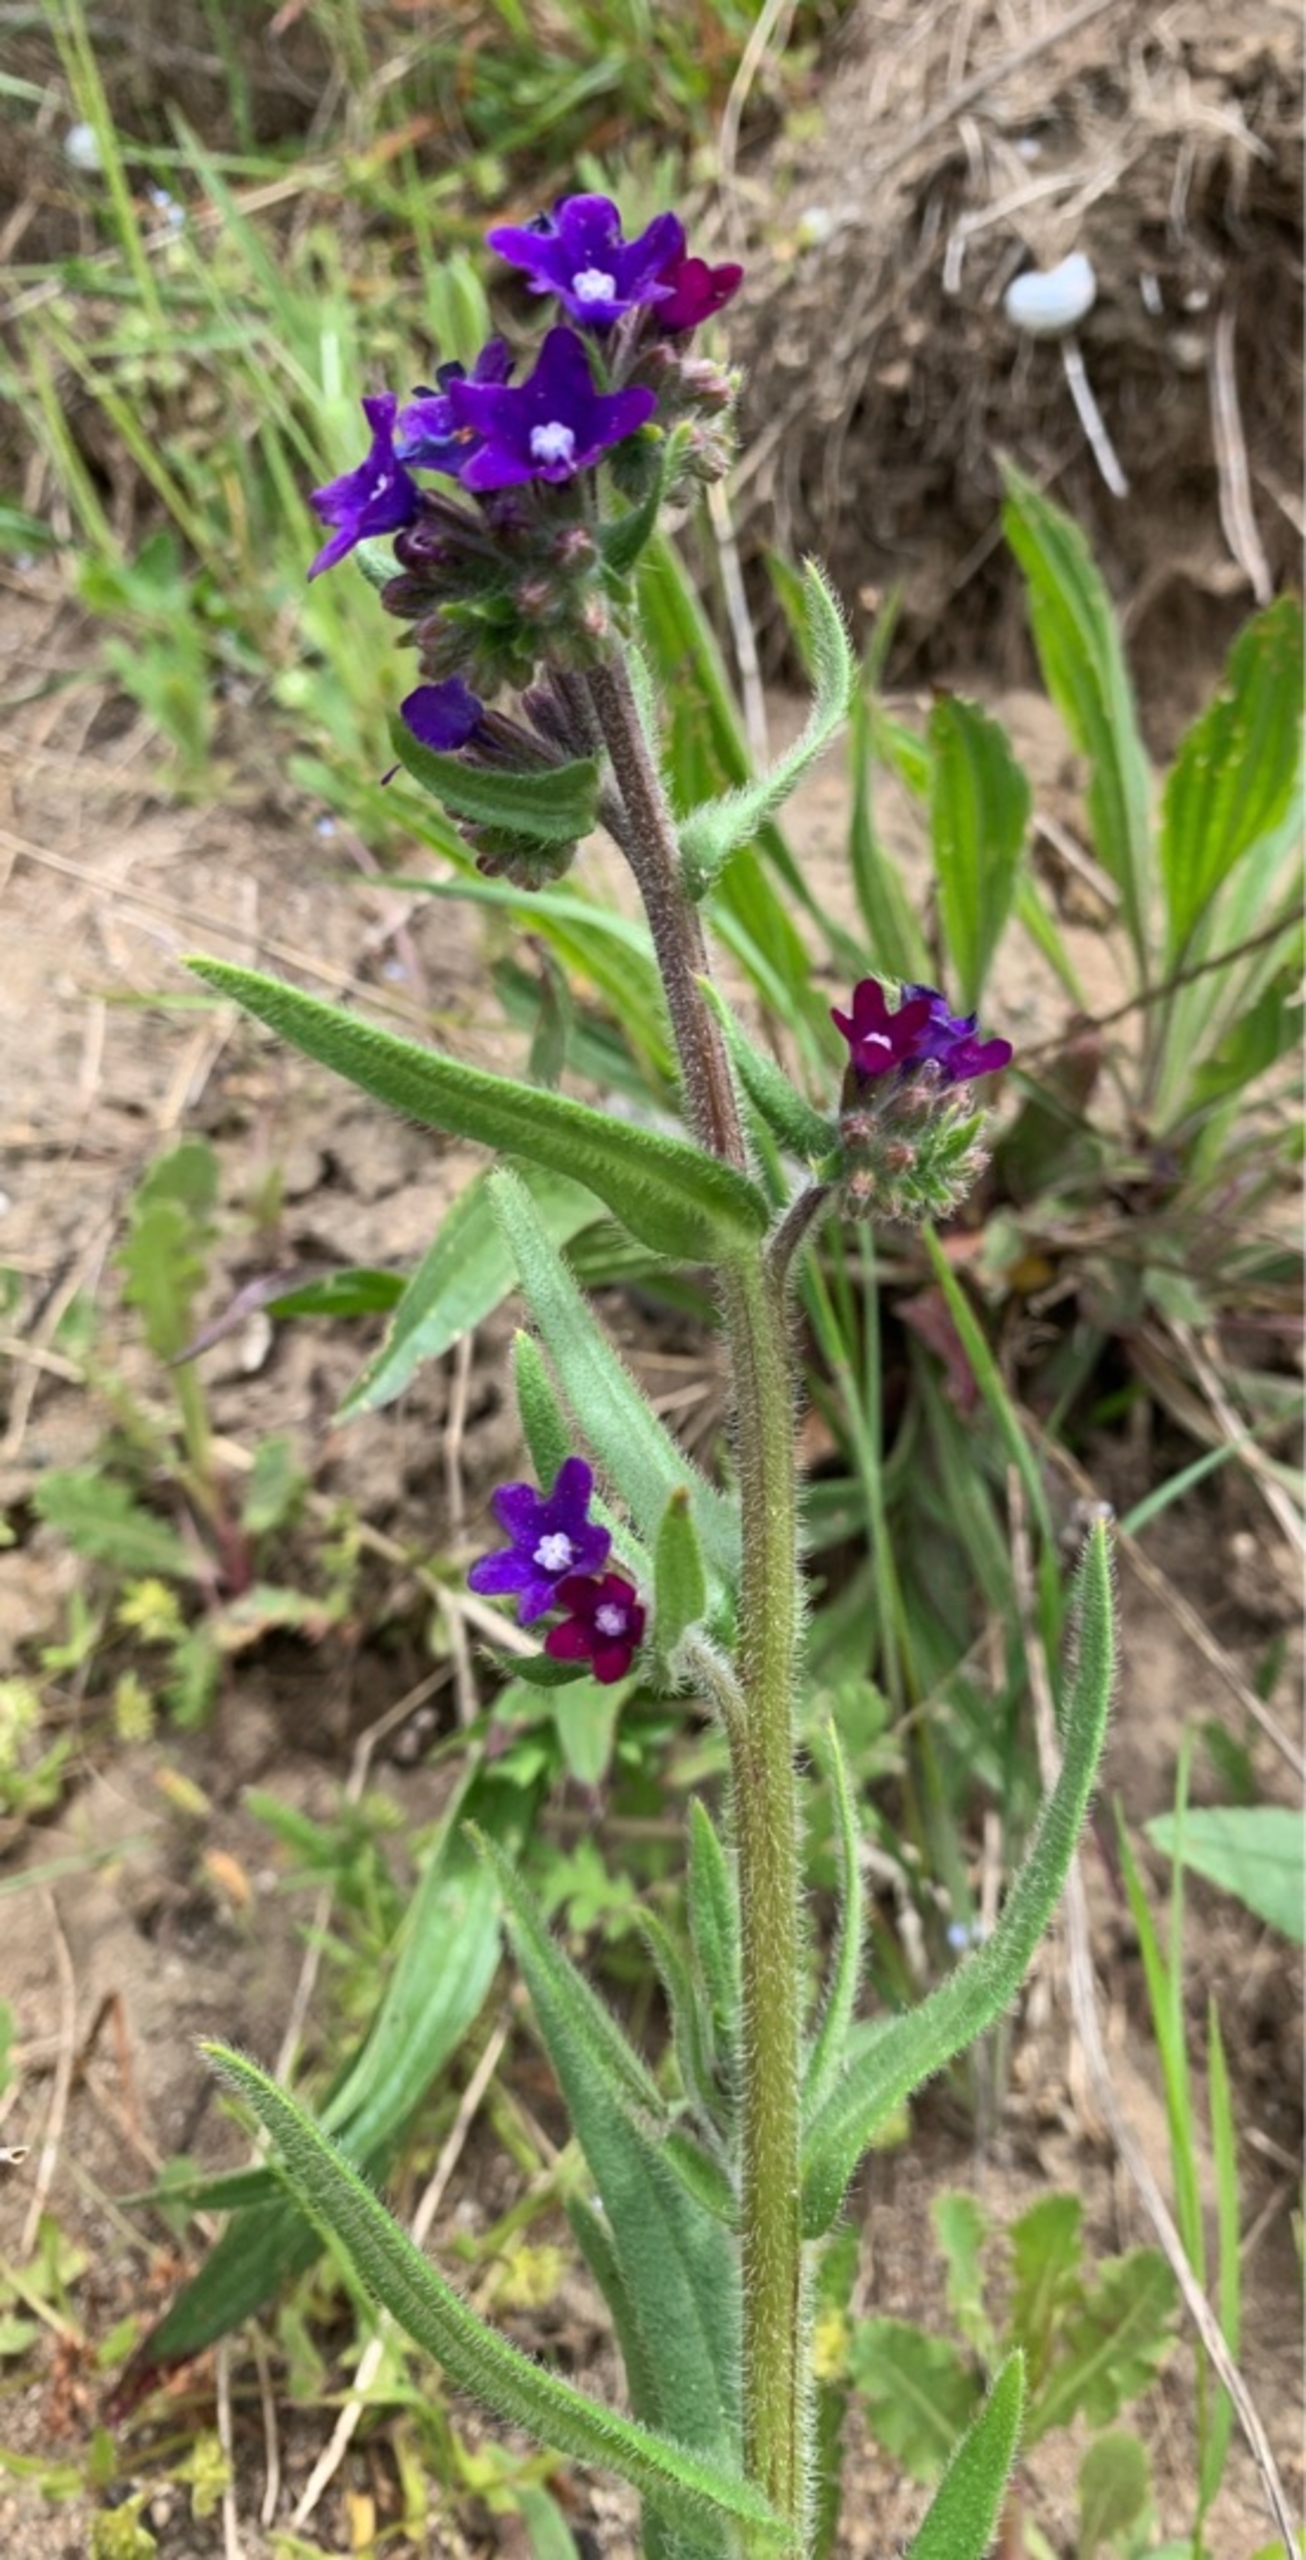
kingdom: Plantae
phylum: Tracheophyta
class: Magnoliopsida
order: Boraginales
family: Boraginaceae
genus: Anchusa
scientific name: Anchusa officinalis
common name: Læge-oksetunge
